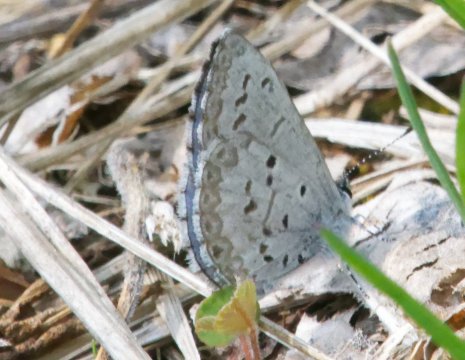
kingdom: Animalia
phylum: Arthropoda
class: Insecta
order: Lepidoptera
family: Lycaenidae
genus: Celastrina
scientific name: Celastrina lucia
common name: Northern Spring Azure
